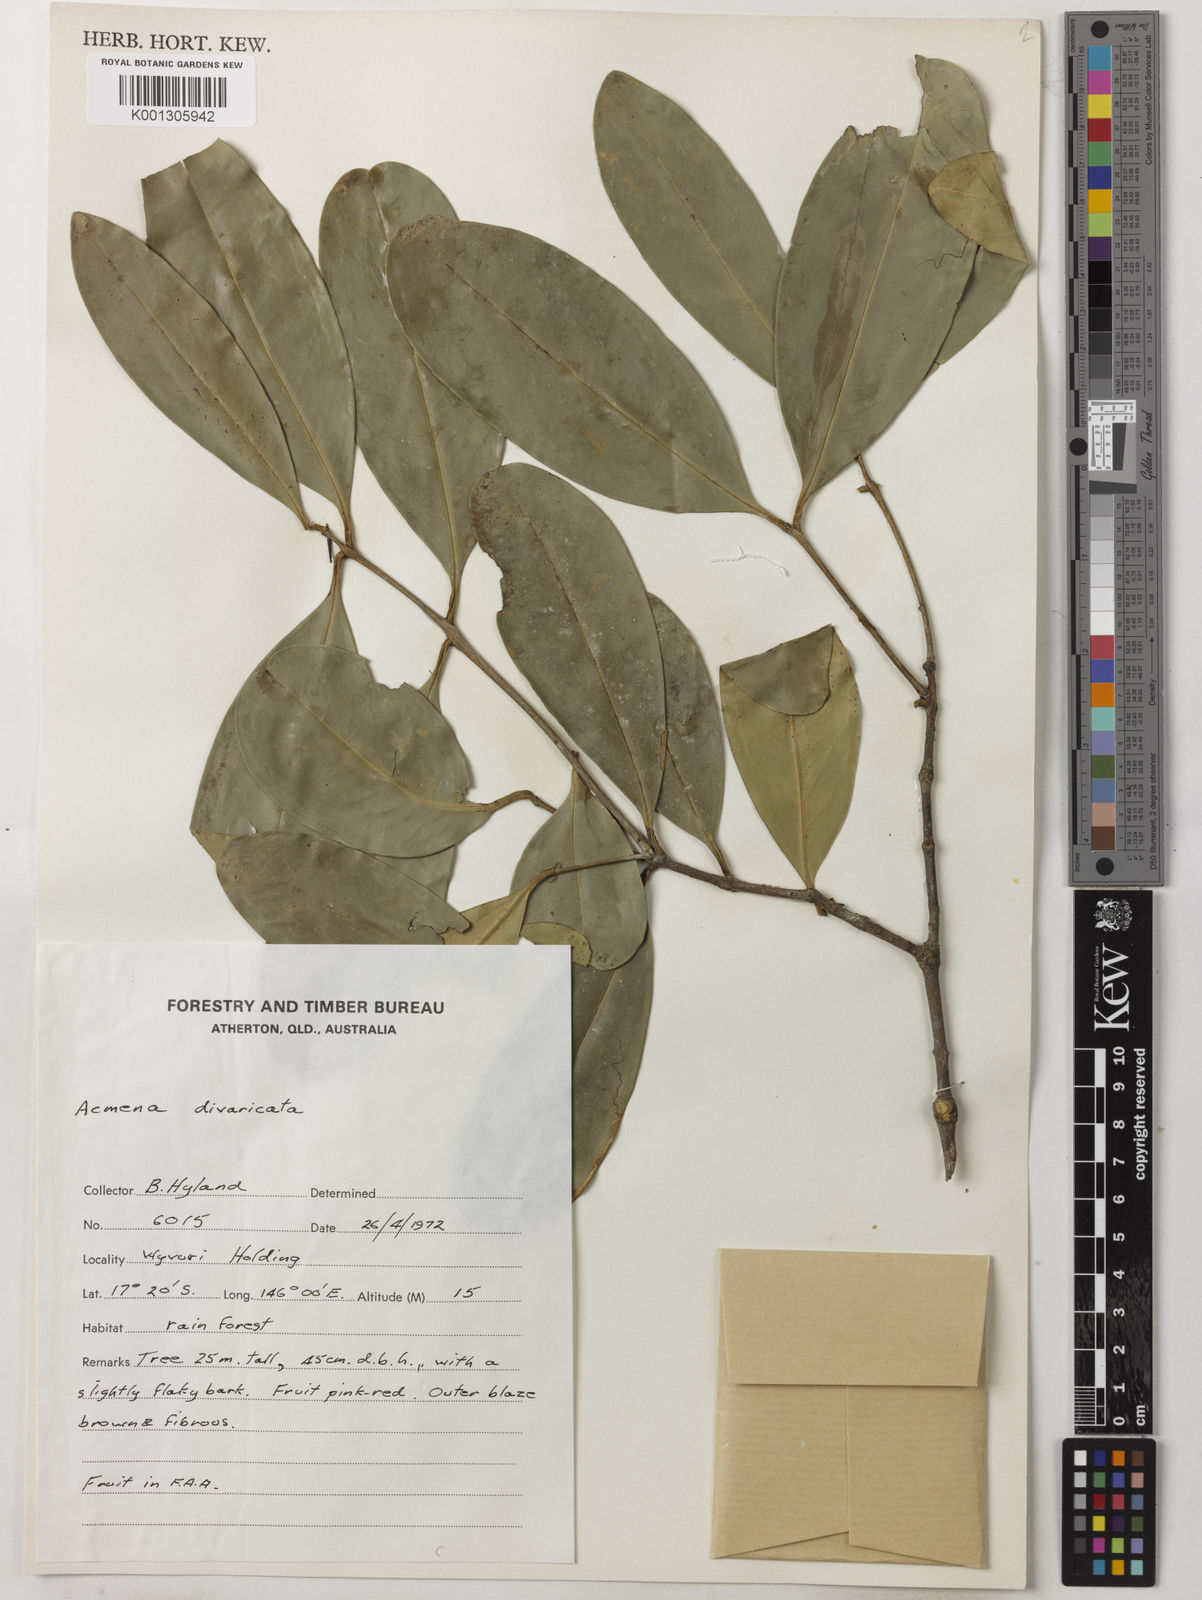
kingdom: Plantae
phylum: Tracheophyta
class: Magnoliopsida
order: Myrtales
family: Myrtaceae
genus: Syzygium
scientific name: Syzygium divaricatum
